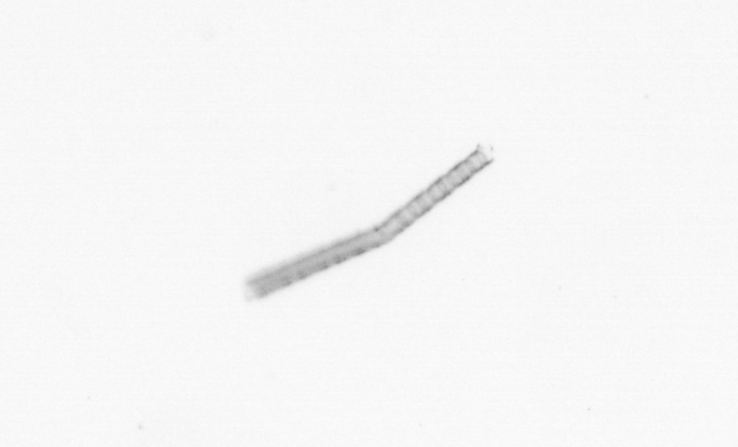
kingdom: Chromista
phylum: Ochrophyta
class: Bacillariophyceae
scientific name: Bacillariophyceae
